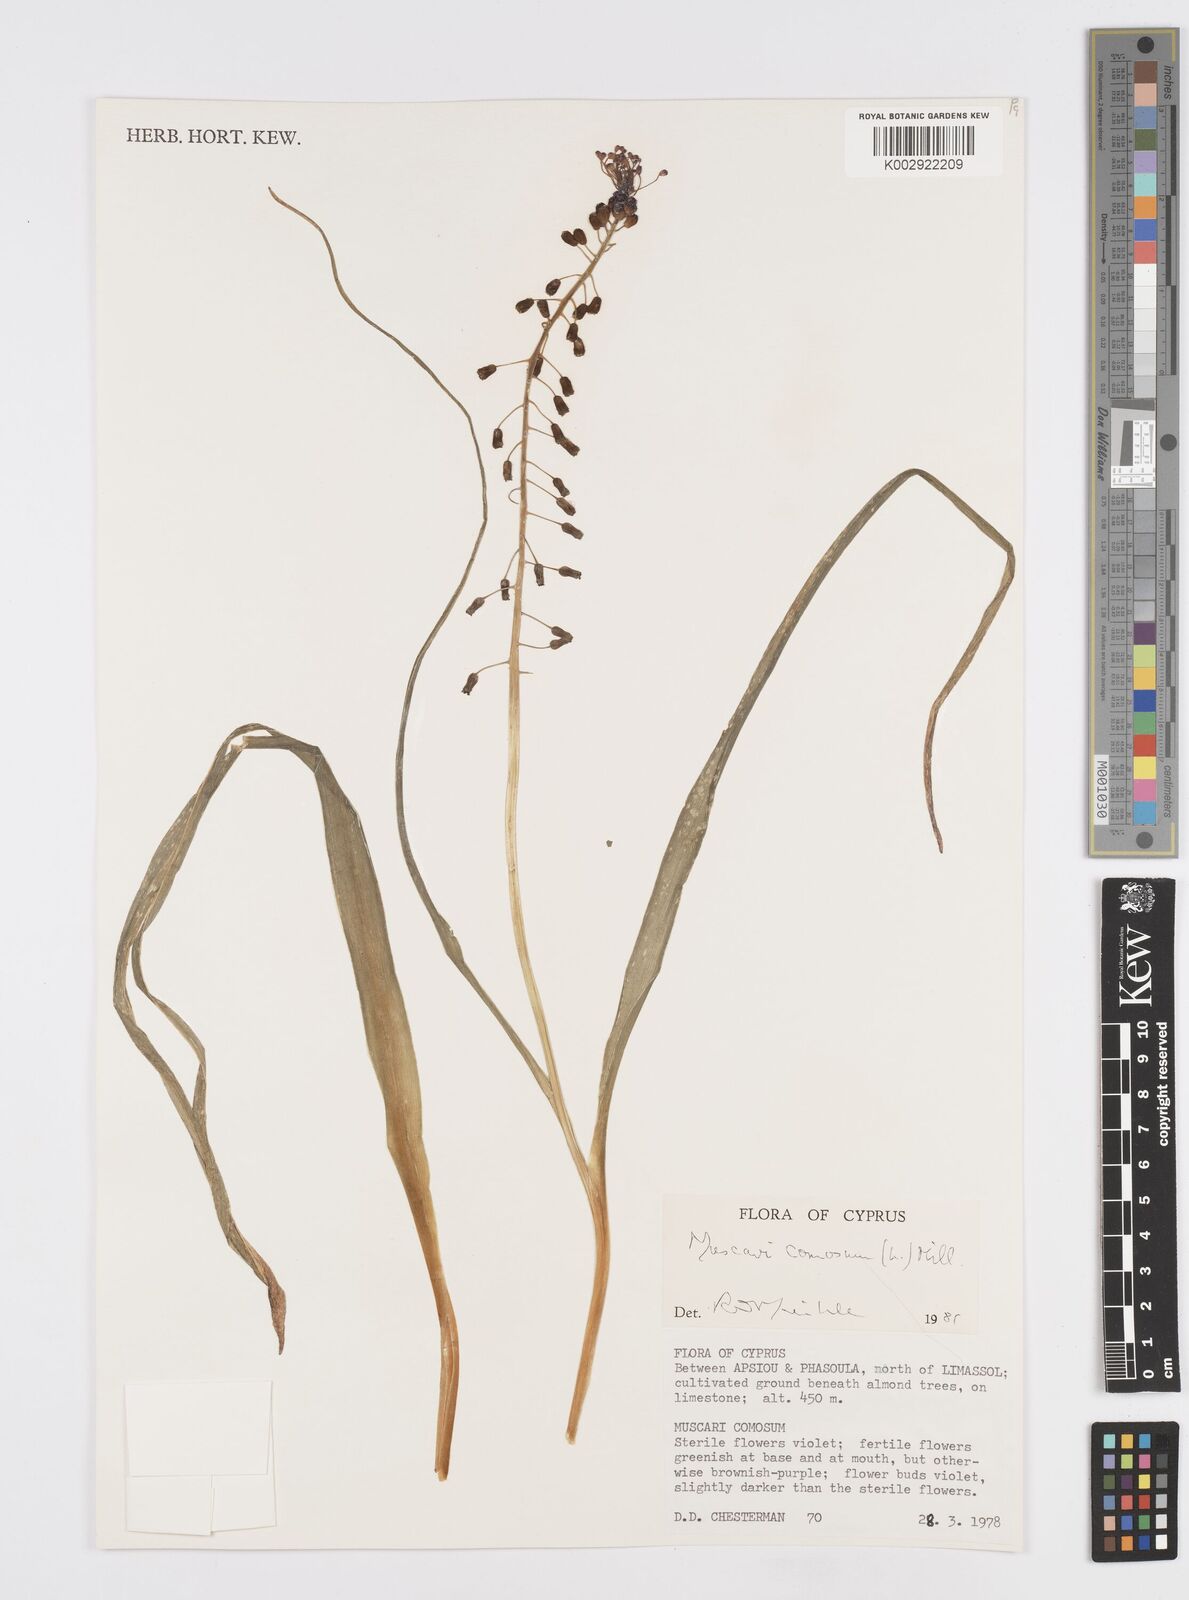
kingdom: Plantae
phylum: Tracheophyta
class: Liliopsida
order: Asparagales
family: Asparagaceae
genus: Muscari
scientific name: Muscari comosum
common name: Tassel hyacinth
